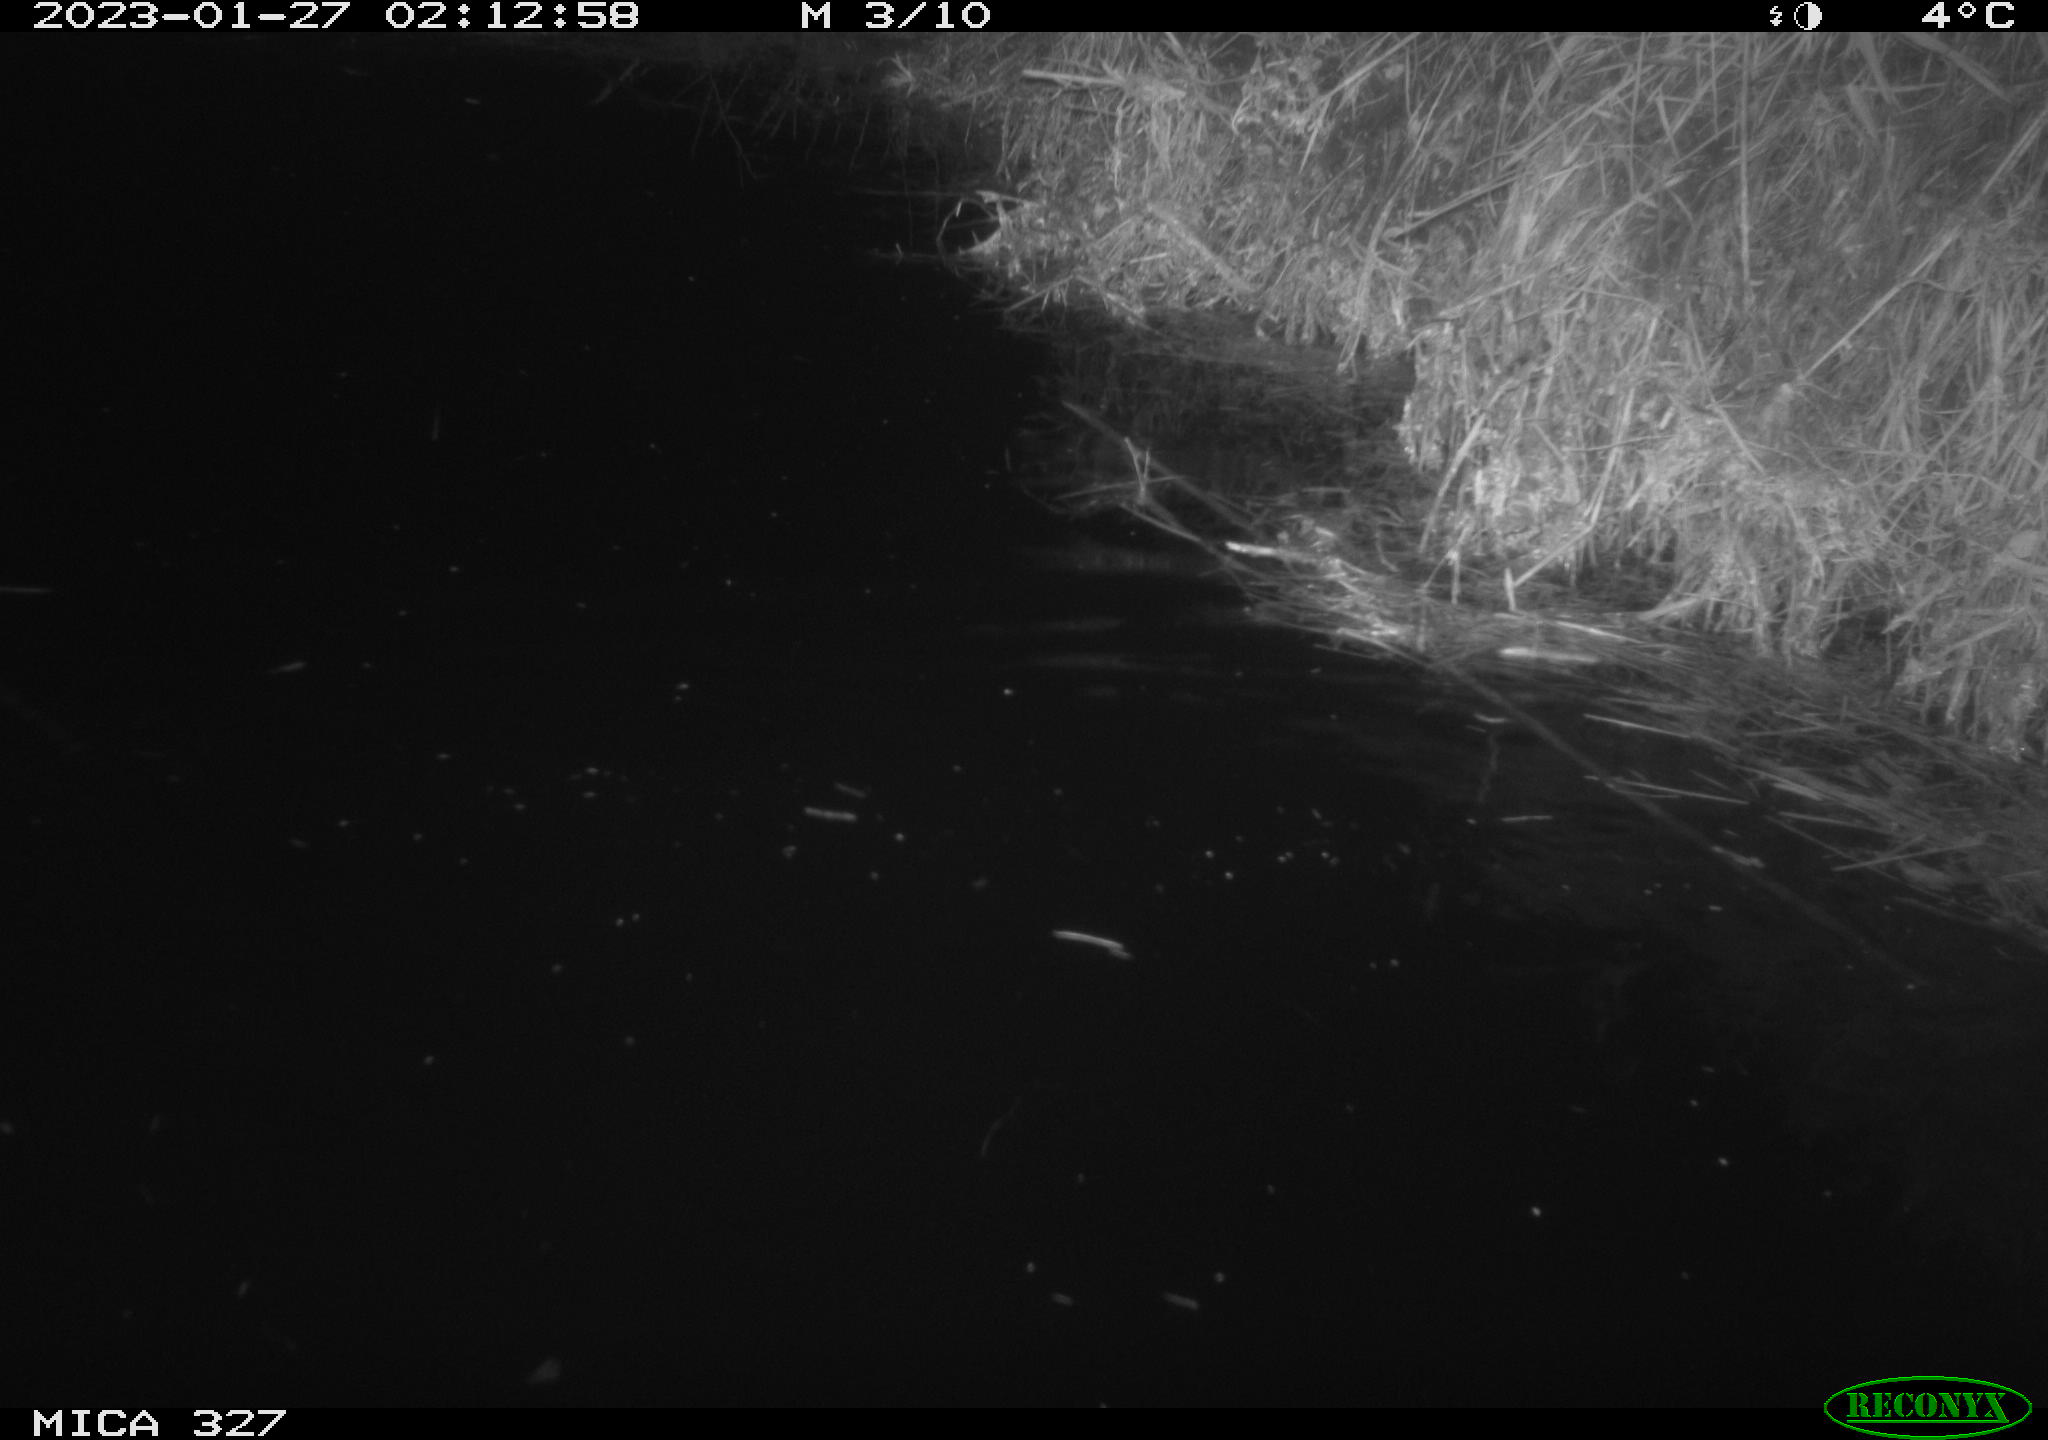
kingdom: Animalia
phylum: Chordata
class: Mammalia
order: Rodentia
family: Myocastoridae
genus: Myocastor
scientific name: Myocastor coypus
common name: Coypu
